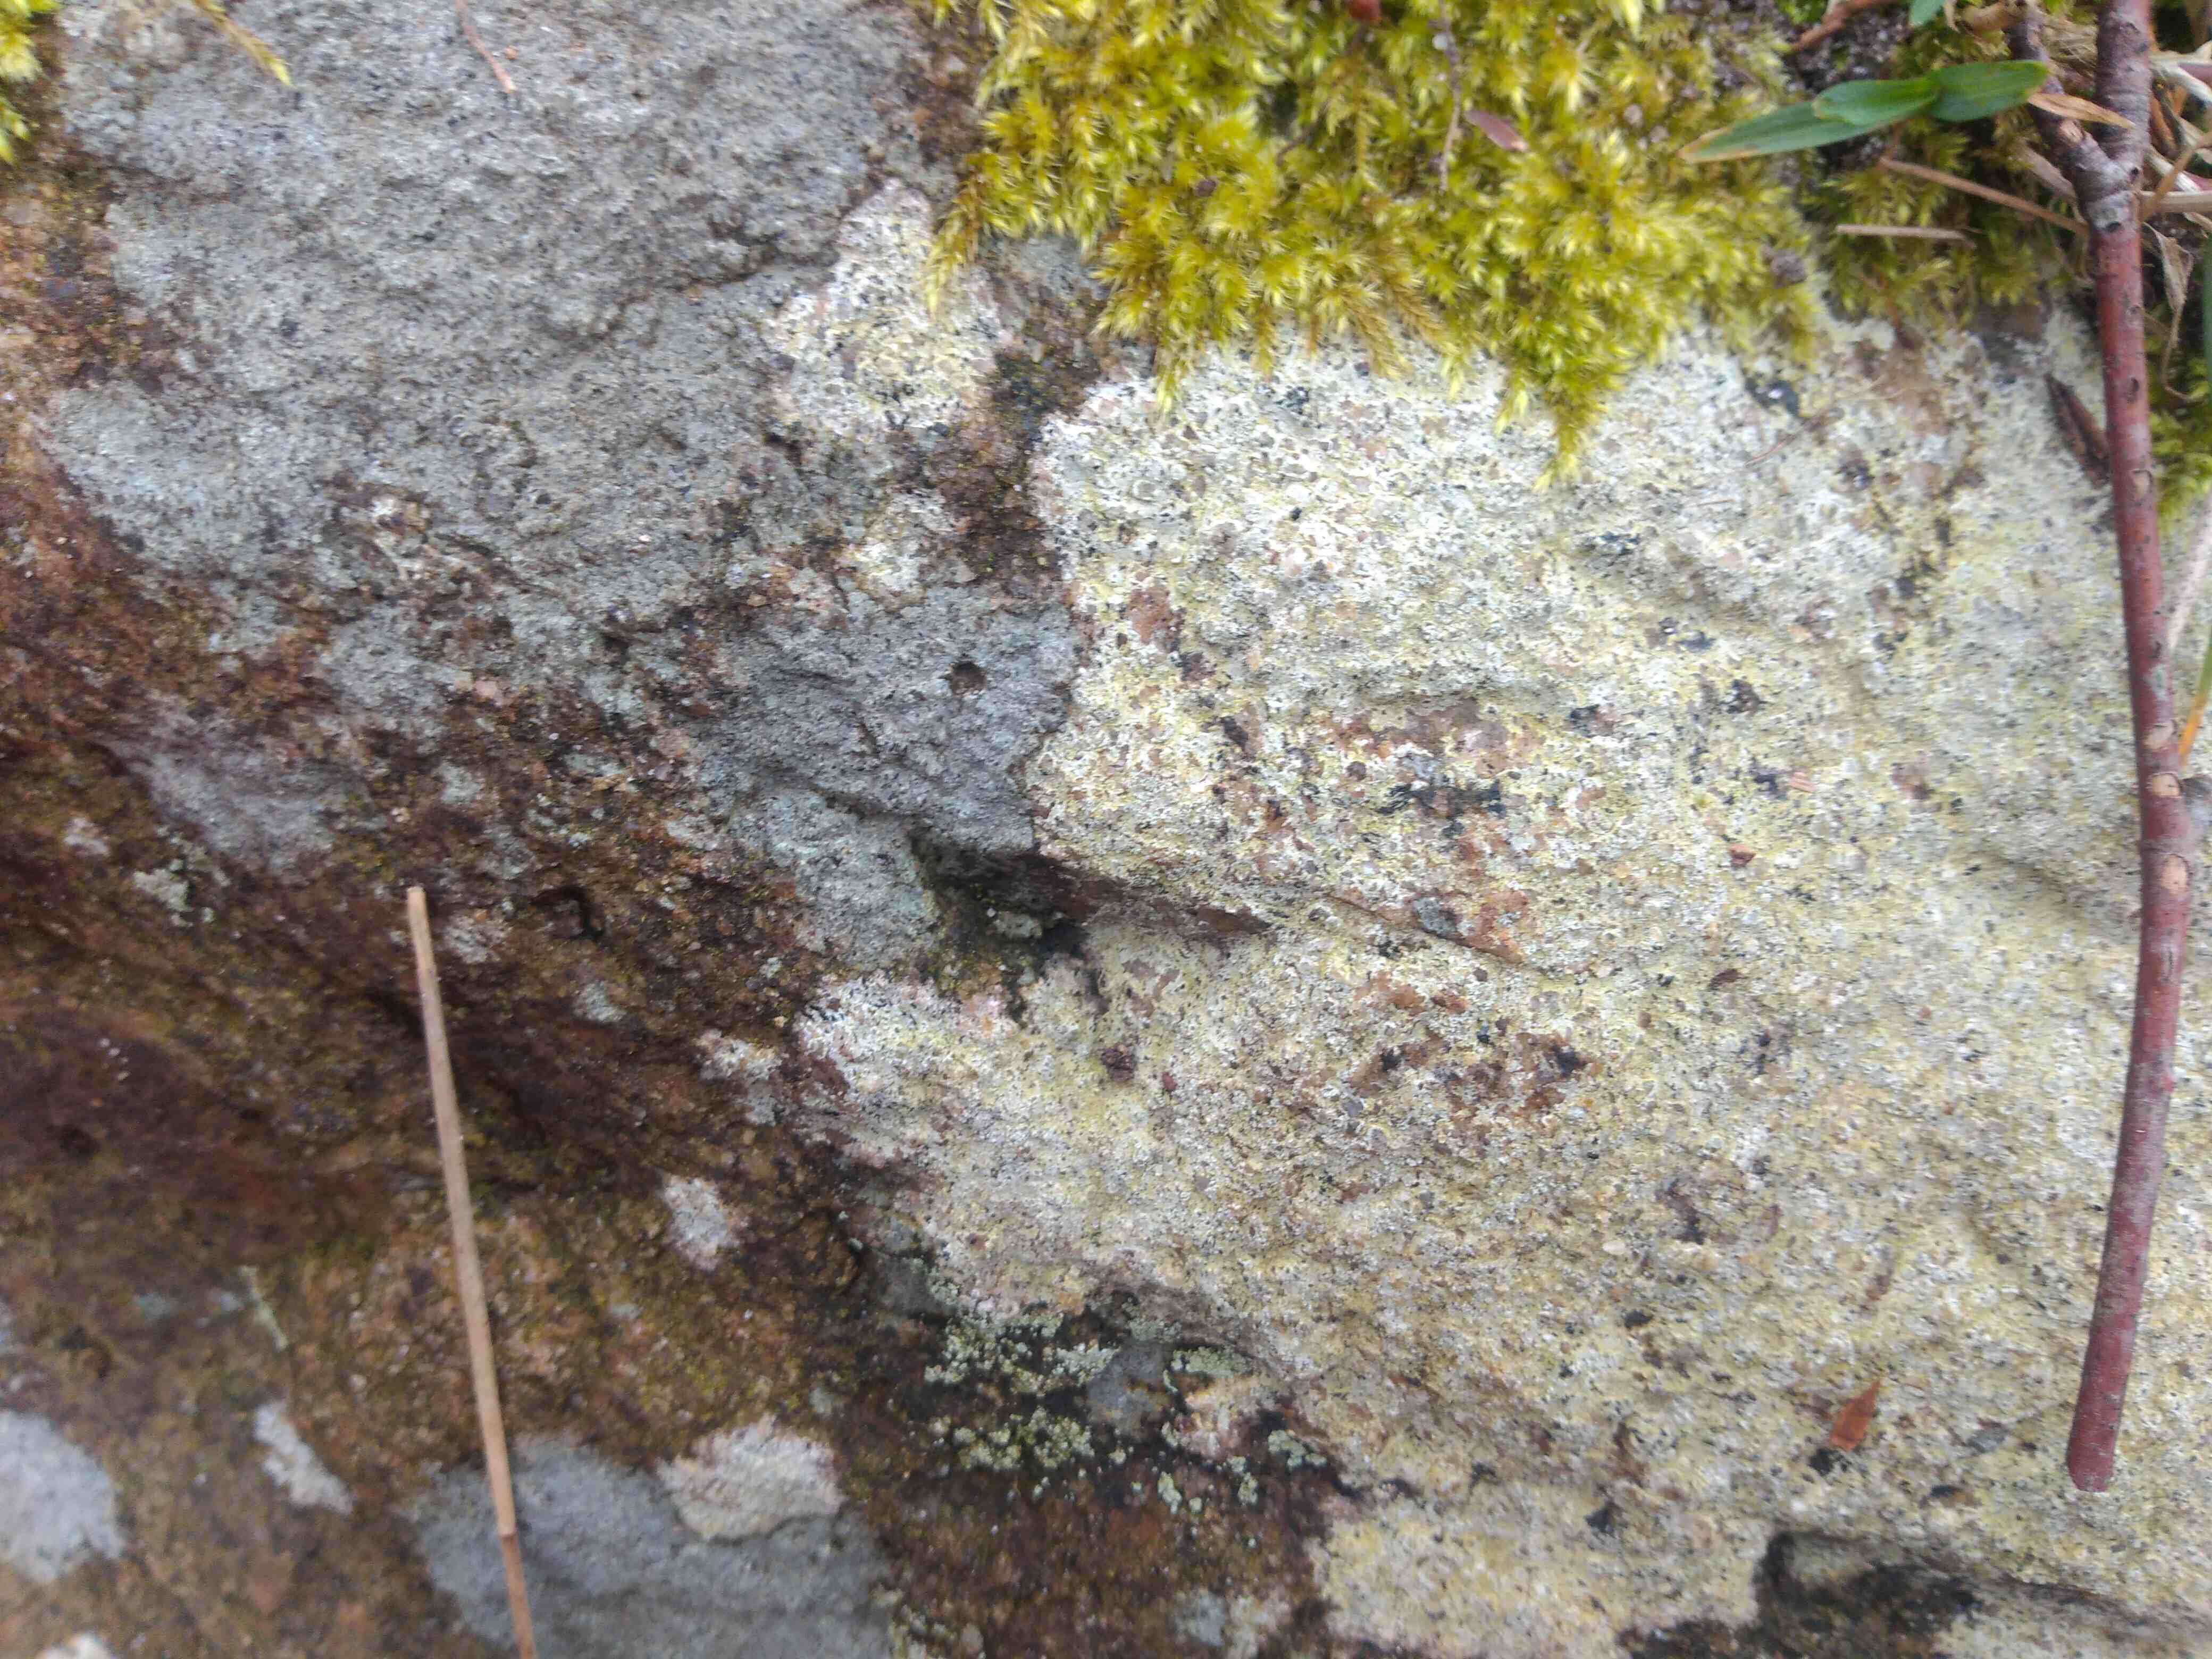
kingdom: Fungi
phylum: Ascomycota
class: Lecanoromycetes
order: Lecanorales
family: Parmeliaceae
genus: Lichen
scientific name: Lichen
